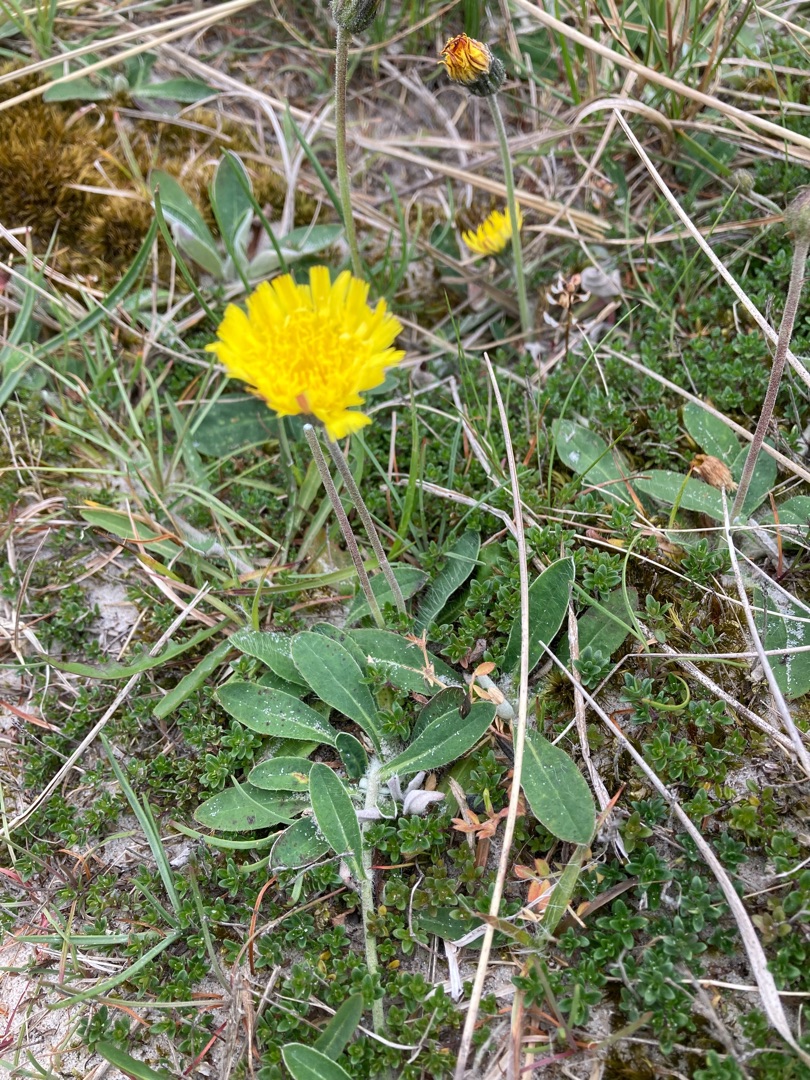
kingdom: Plantae
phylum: Tracheophyta
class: Magnoliopsida
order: Asterales
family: Asteraceae
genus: Pilosella
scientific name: Pilosella officinarum
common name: Håret høgeurt
